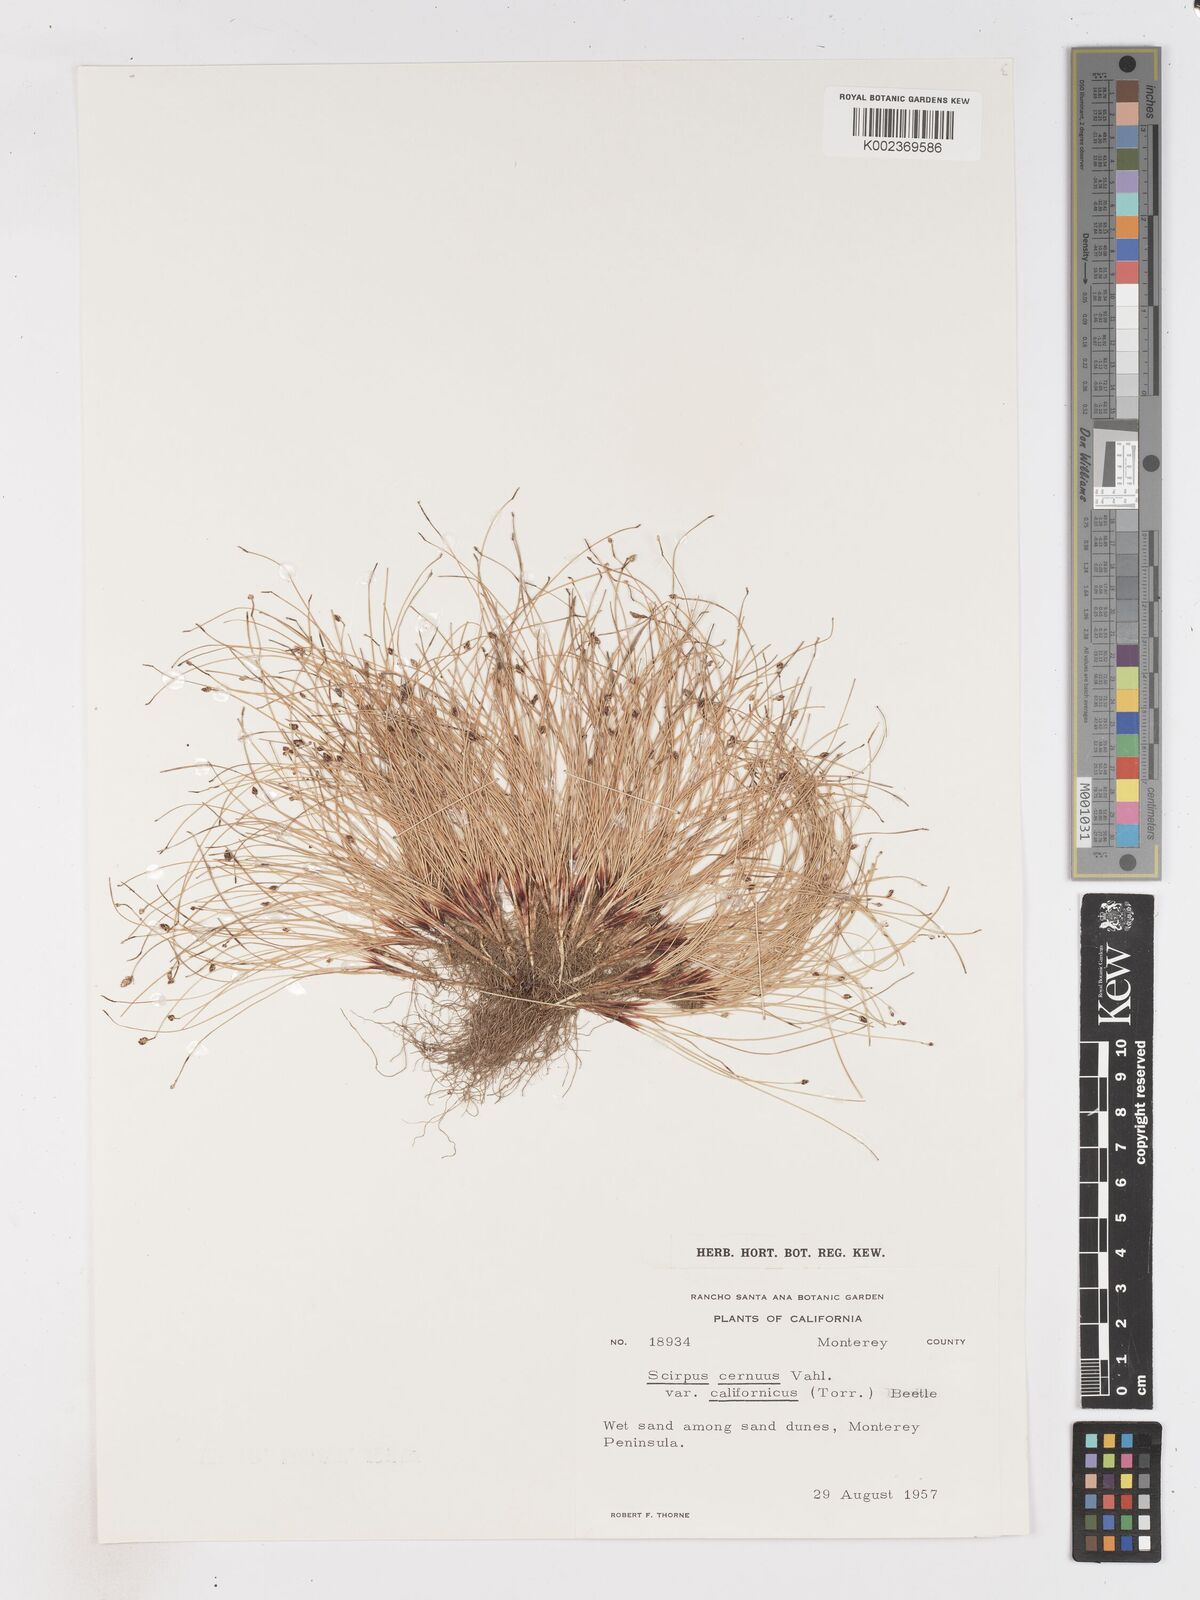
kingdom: Plantae
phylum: Tracheophyta
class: Liliopsida
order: Poales
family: Cyperaceae
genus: Isolepis
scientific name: Isolepis cernua
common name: Slender club-rush
